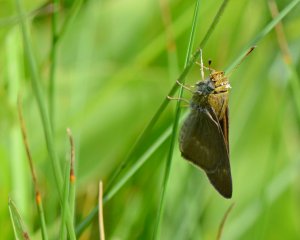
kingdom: Animalia
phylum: Arthropoda
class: Insecta
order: Lepidoptera
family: Hesperiidae
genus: Polites
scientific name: Polites egeremet
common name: Northern Broken-Dash
